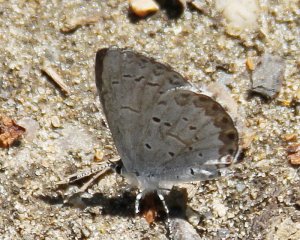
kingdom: Animalia
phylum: Arthropoda
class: Insecta
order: Lepidoptera
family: Lycaenidae
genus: Celastrina
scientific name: Celastrina lucia
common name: Northern Spring Azure
